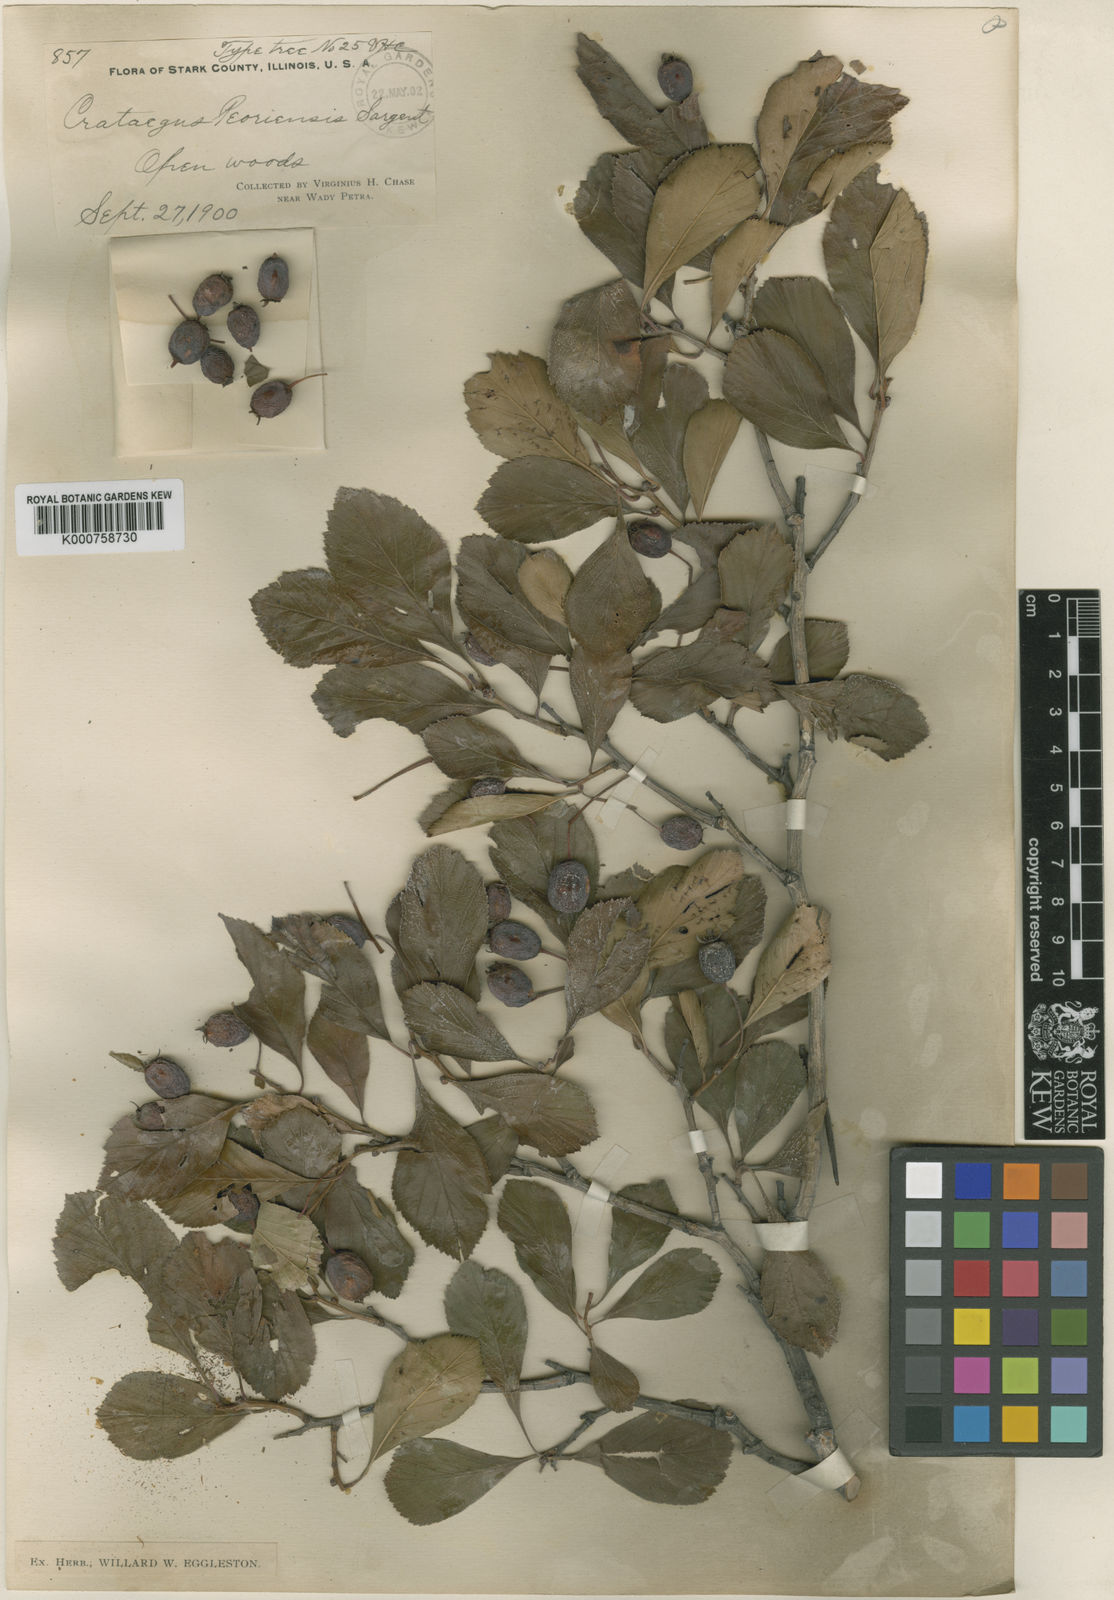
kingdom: Plantae
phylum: Tracheophyta
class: Magnoliopsida
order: Rosales
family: Rosaceae
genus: Crataegus
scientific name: Crataegus disperma
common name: Spreading hawthorn
